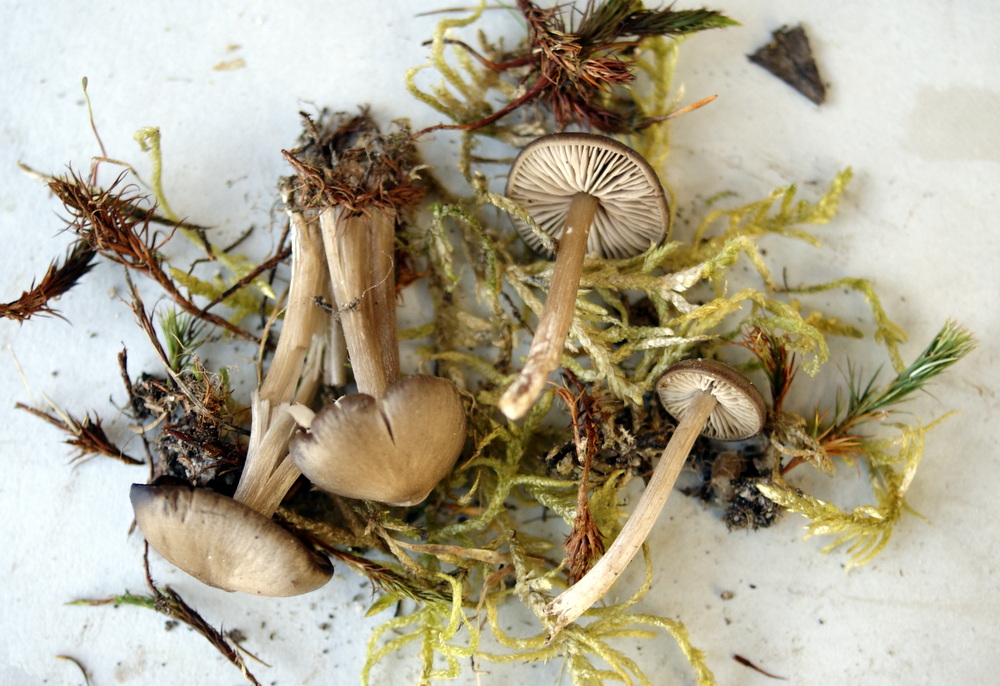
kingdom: Fungi
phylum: Basidiomycota
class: Agaricomycetes
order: Agaricales
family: Entolomataceae
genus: Entoloma
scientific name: Entoloma vernum
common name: vår-rødblad
